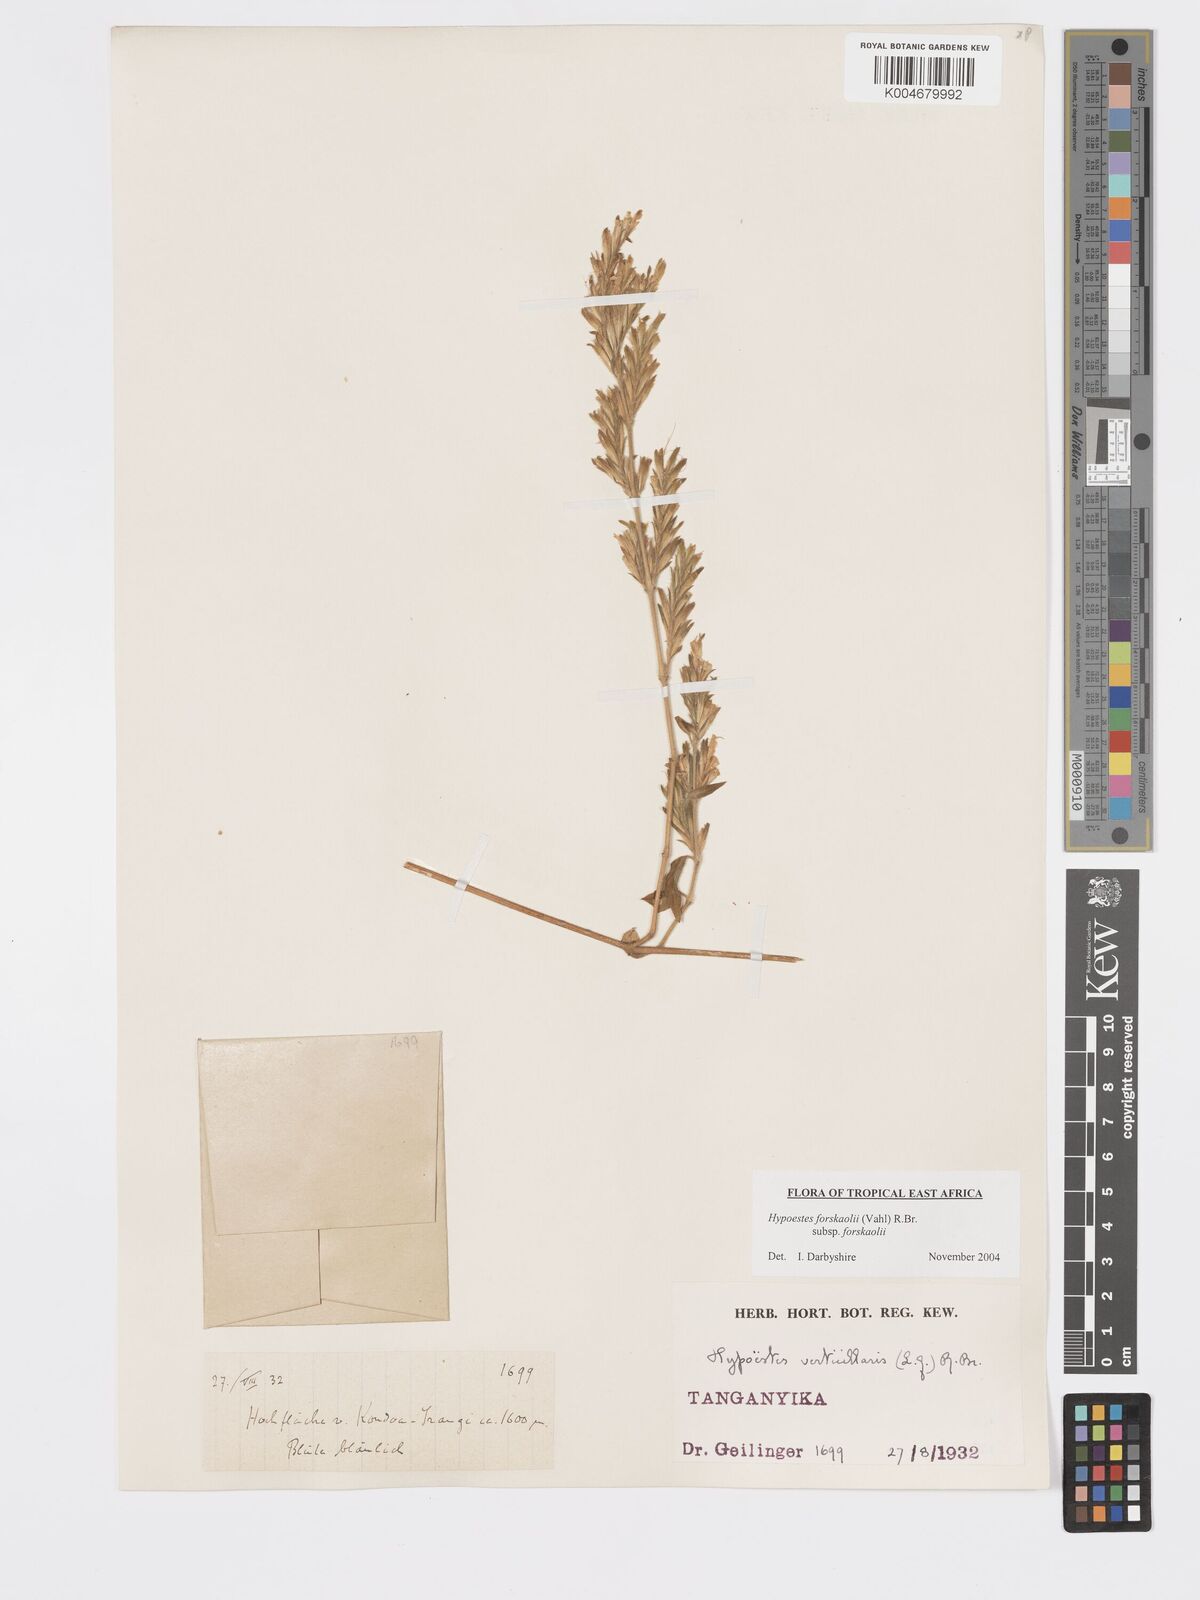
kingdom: Plantae
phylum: Tracheophyta
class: Magnoliopsida
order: Lamiales
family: Acanthaceae
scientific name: Acanthaceae
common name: Acanthaceae
